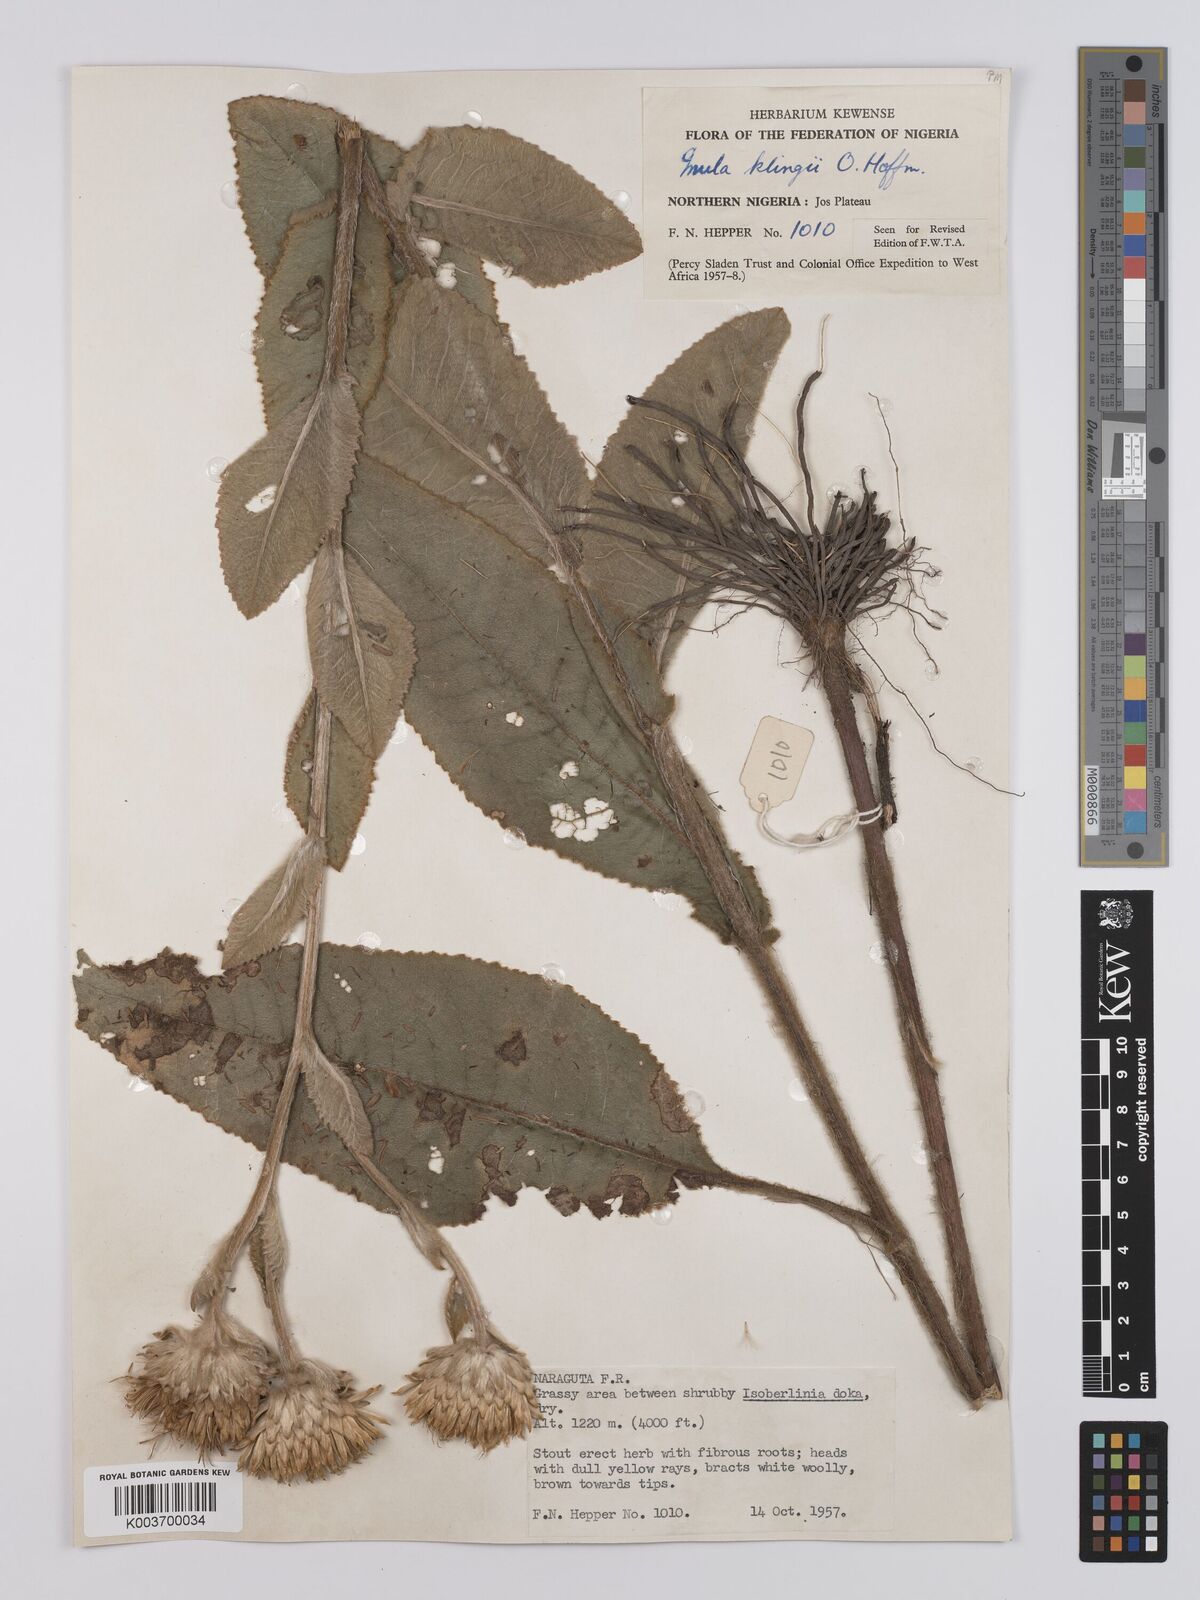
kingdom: Plantae
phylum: Tracheophyta
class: Magnoliopsida
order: Asterales
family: Asteraceae
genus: Inula
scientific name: Inula klingii
